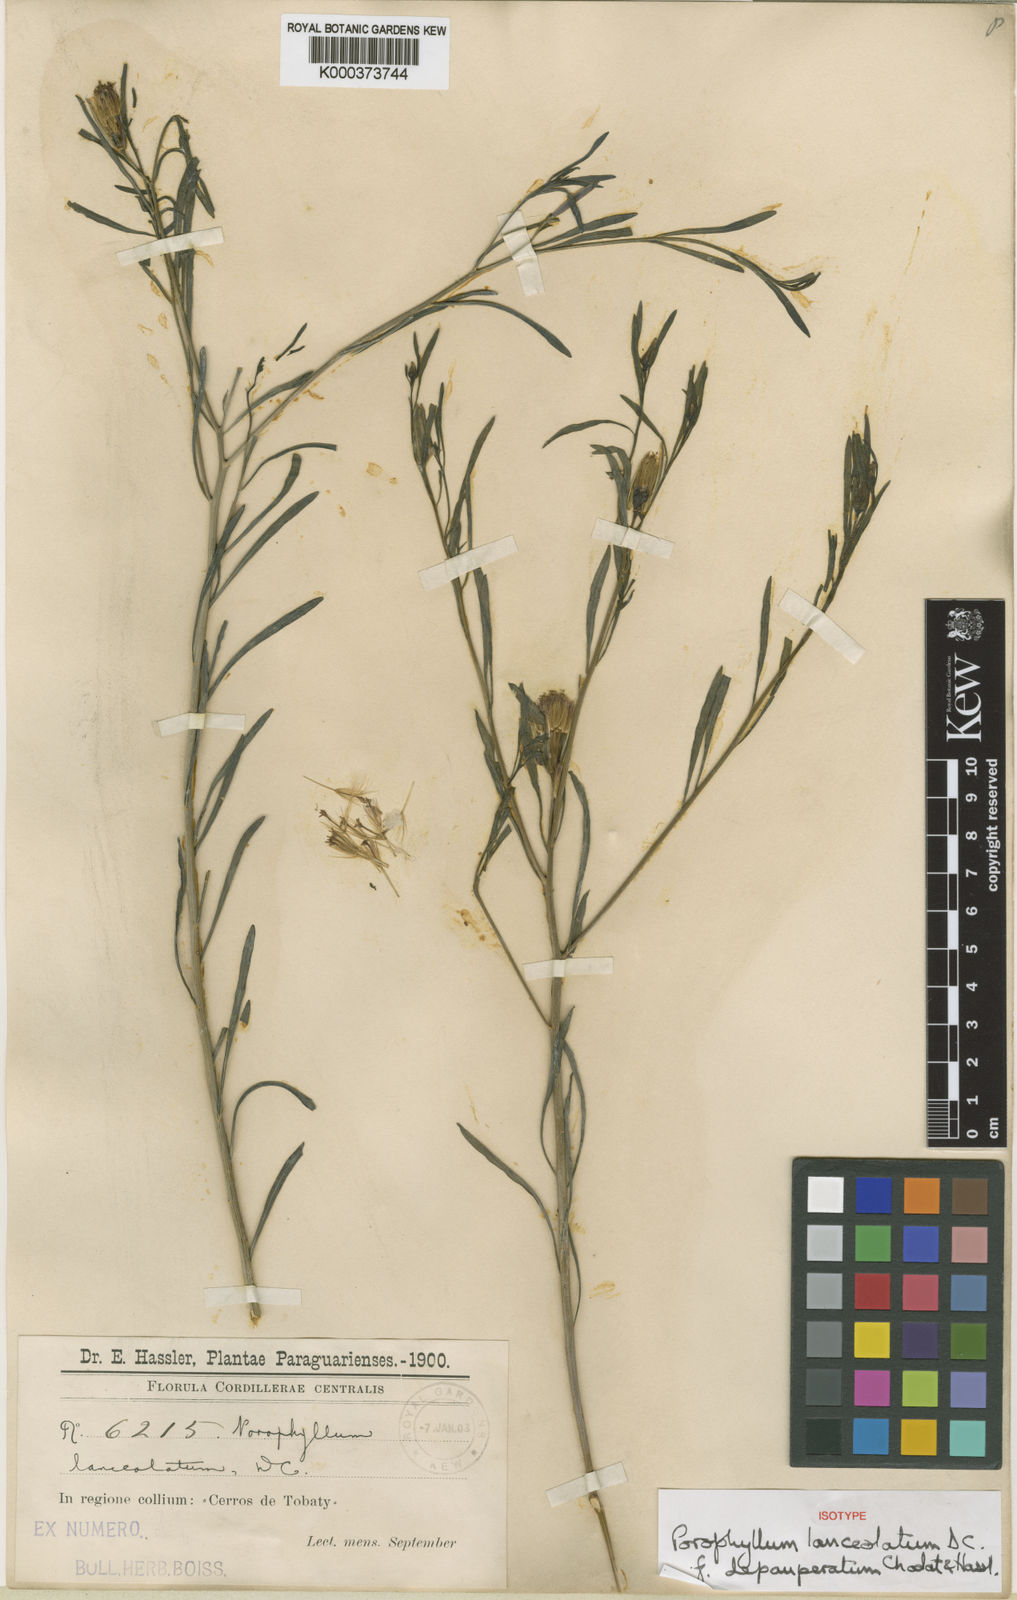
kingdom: Plantae
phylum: Tracheophyta
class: Magnoliopsida
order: Asterales
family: Asteraceae
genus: Porophyllum
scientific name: Porophyllum lanceolatum
